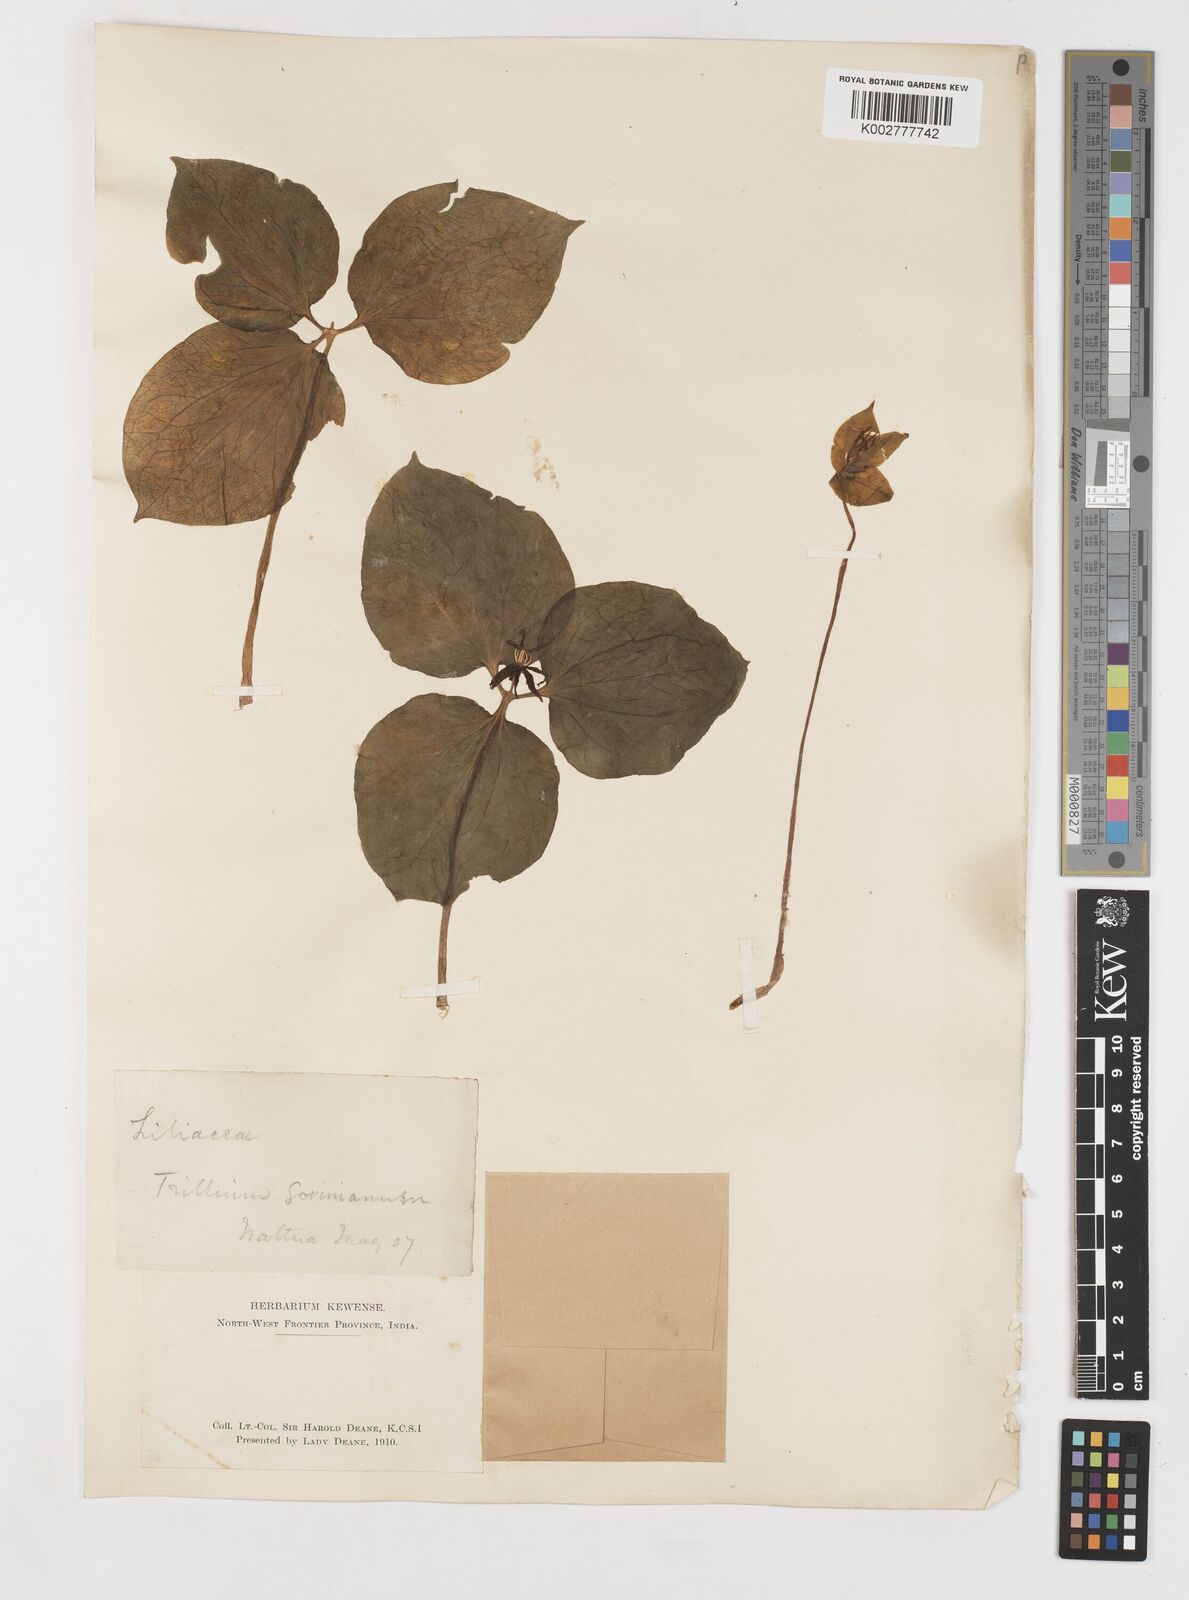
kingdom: Plantae
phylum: Tracheophyta
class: Liliopsida
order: Liliales
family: Melanthiaceae
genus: Trillium
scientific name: Trillium govanianum
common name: Himalayan trillium
